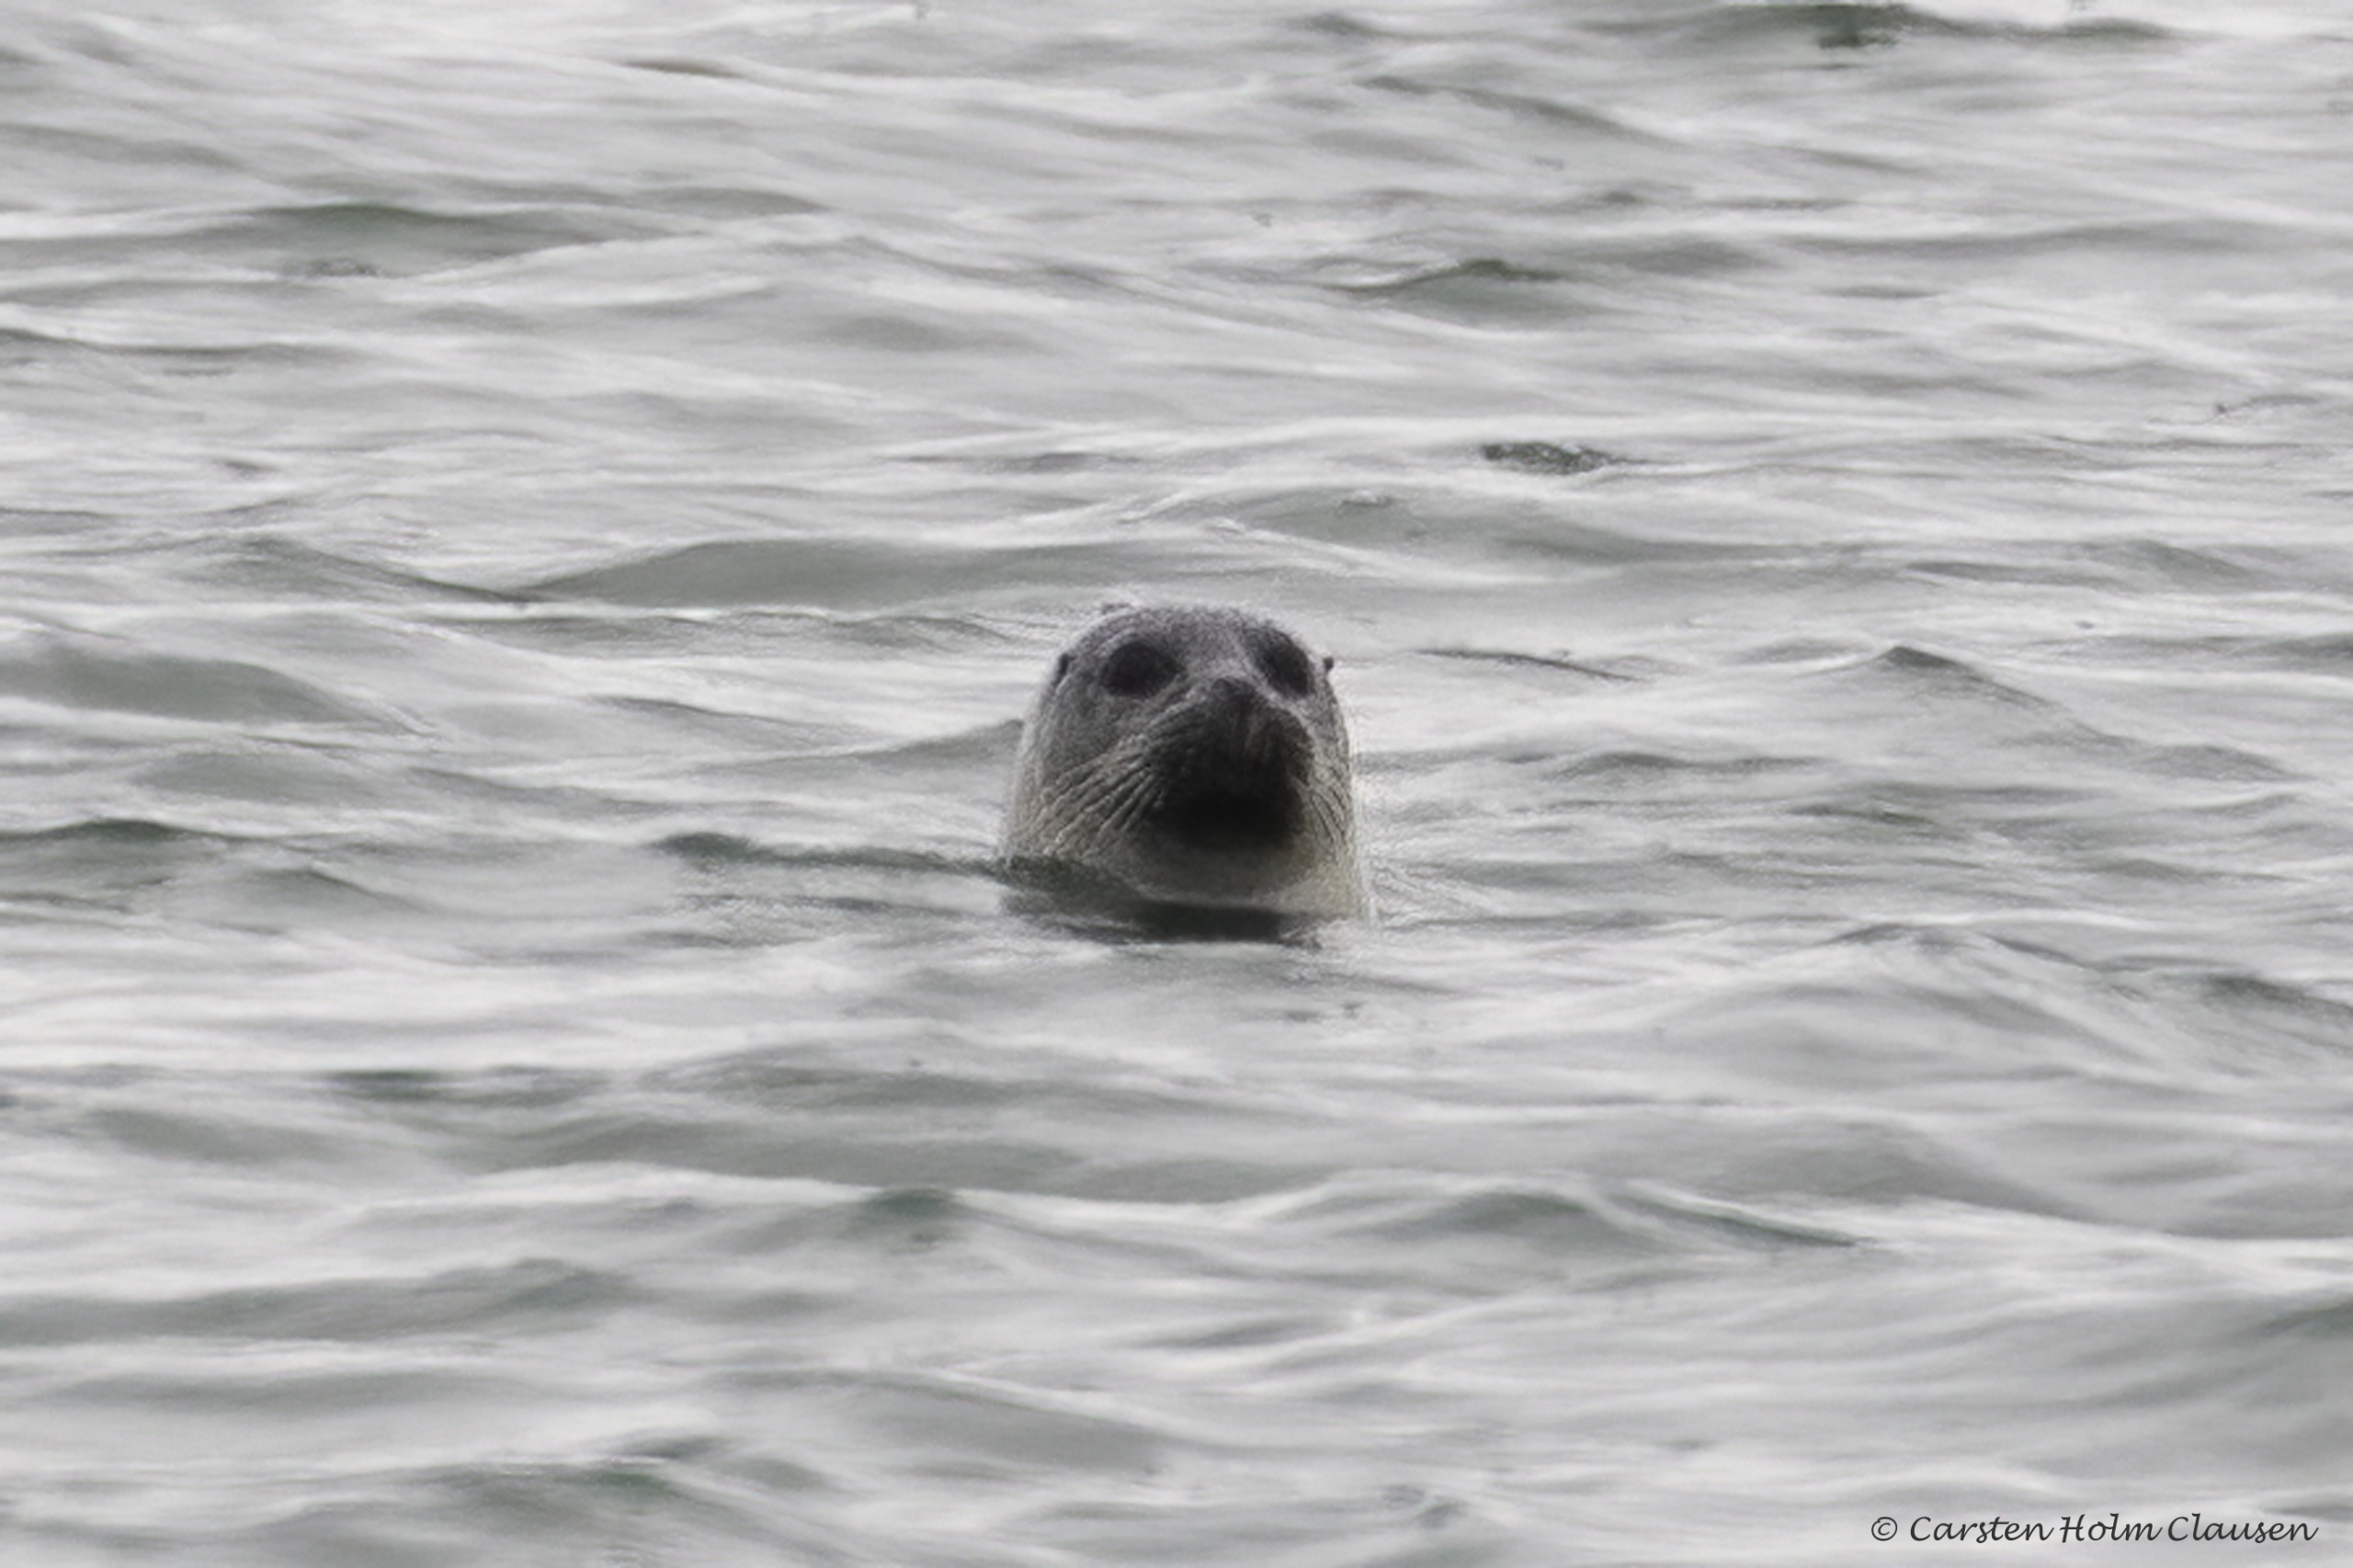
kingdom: Animalia
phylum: Chordata
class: Mammalia
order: Carnivora
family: Phocidae
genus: Phoca
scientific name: Phoca vitulina
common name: Spættet sæl
